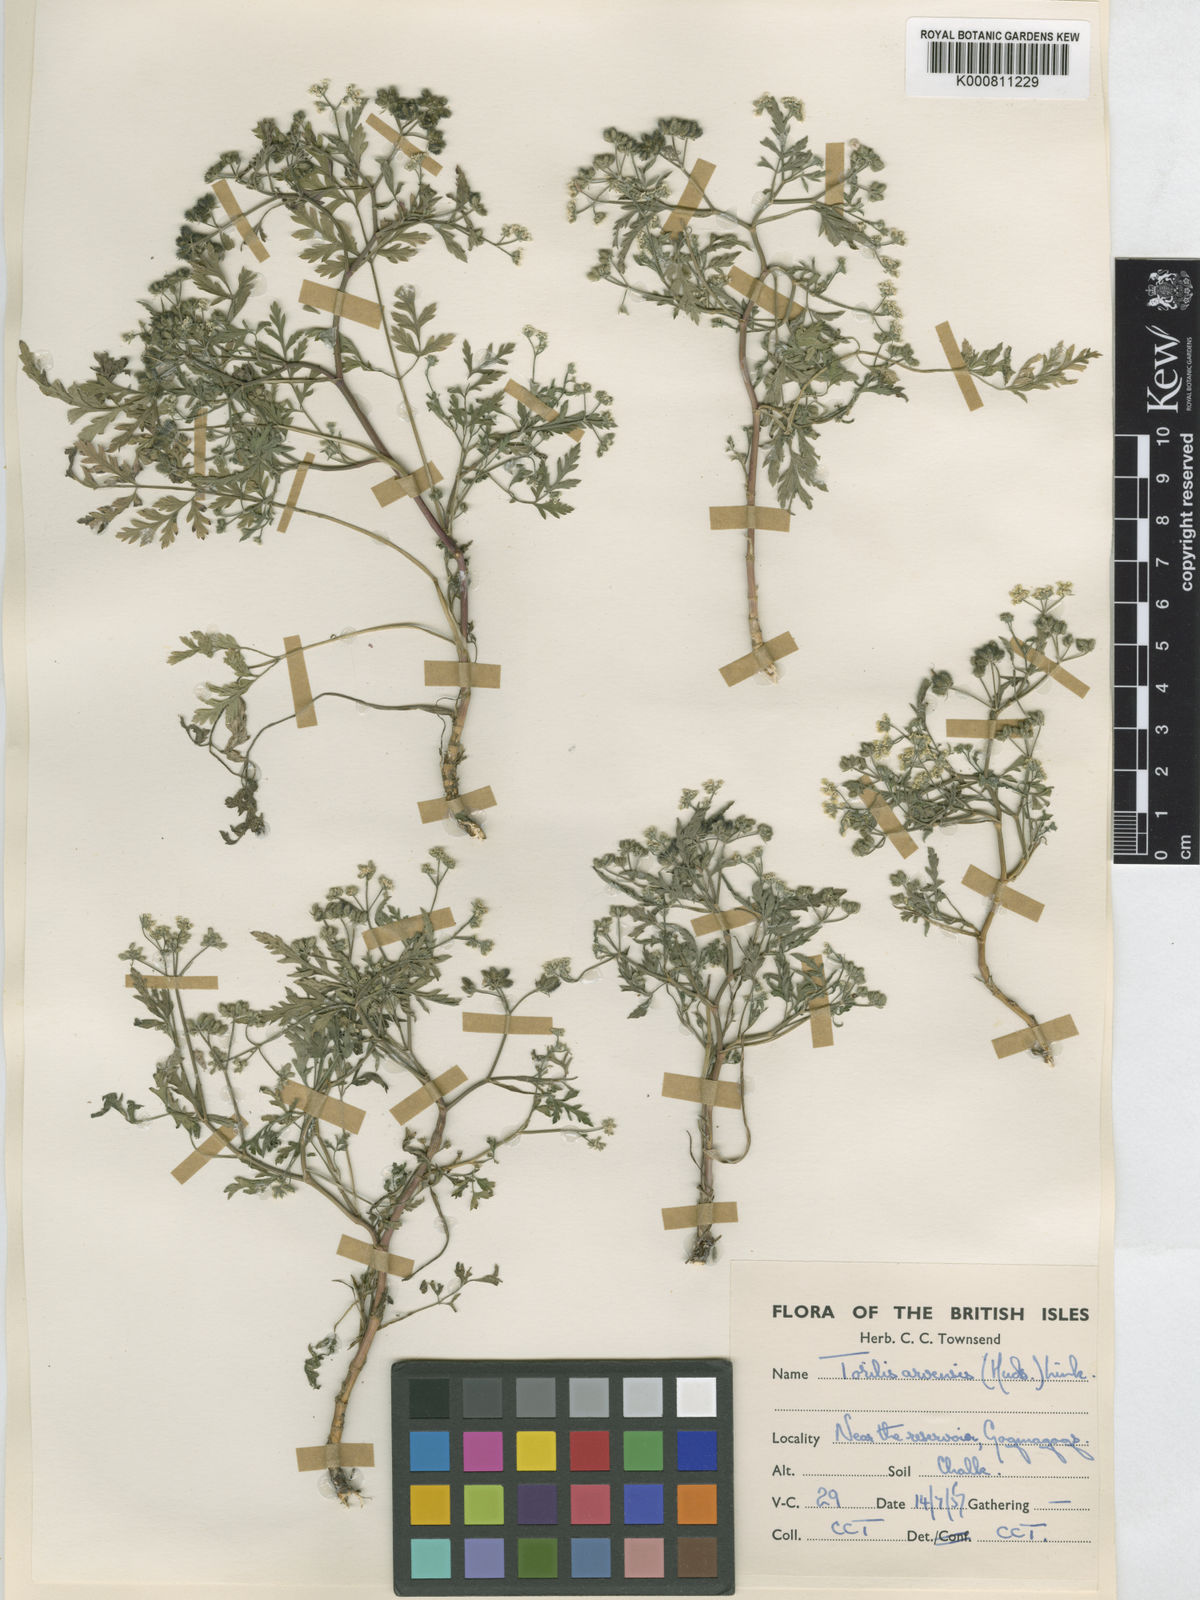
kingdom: Plantae
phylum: Tracheophyta
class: Magnoliopsida
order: Apiales
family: Apiaceae
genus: Torilis
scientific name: Torilis arvensis
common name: Spreading hedge-parsley
